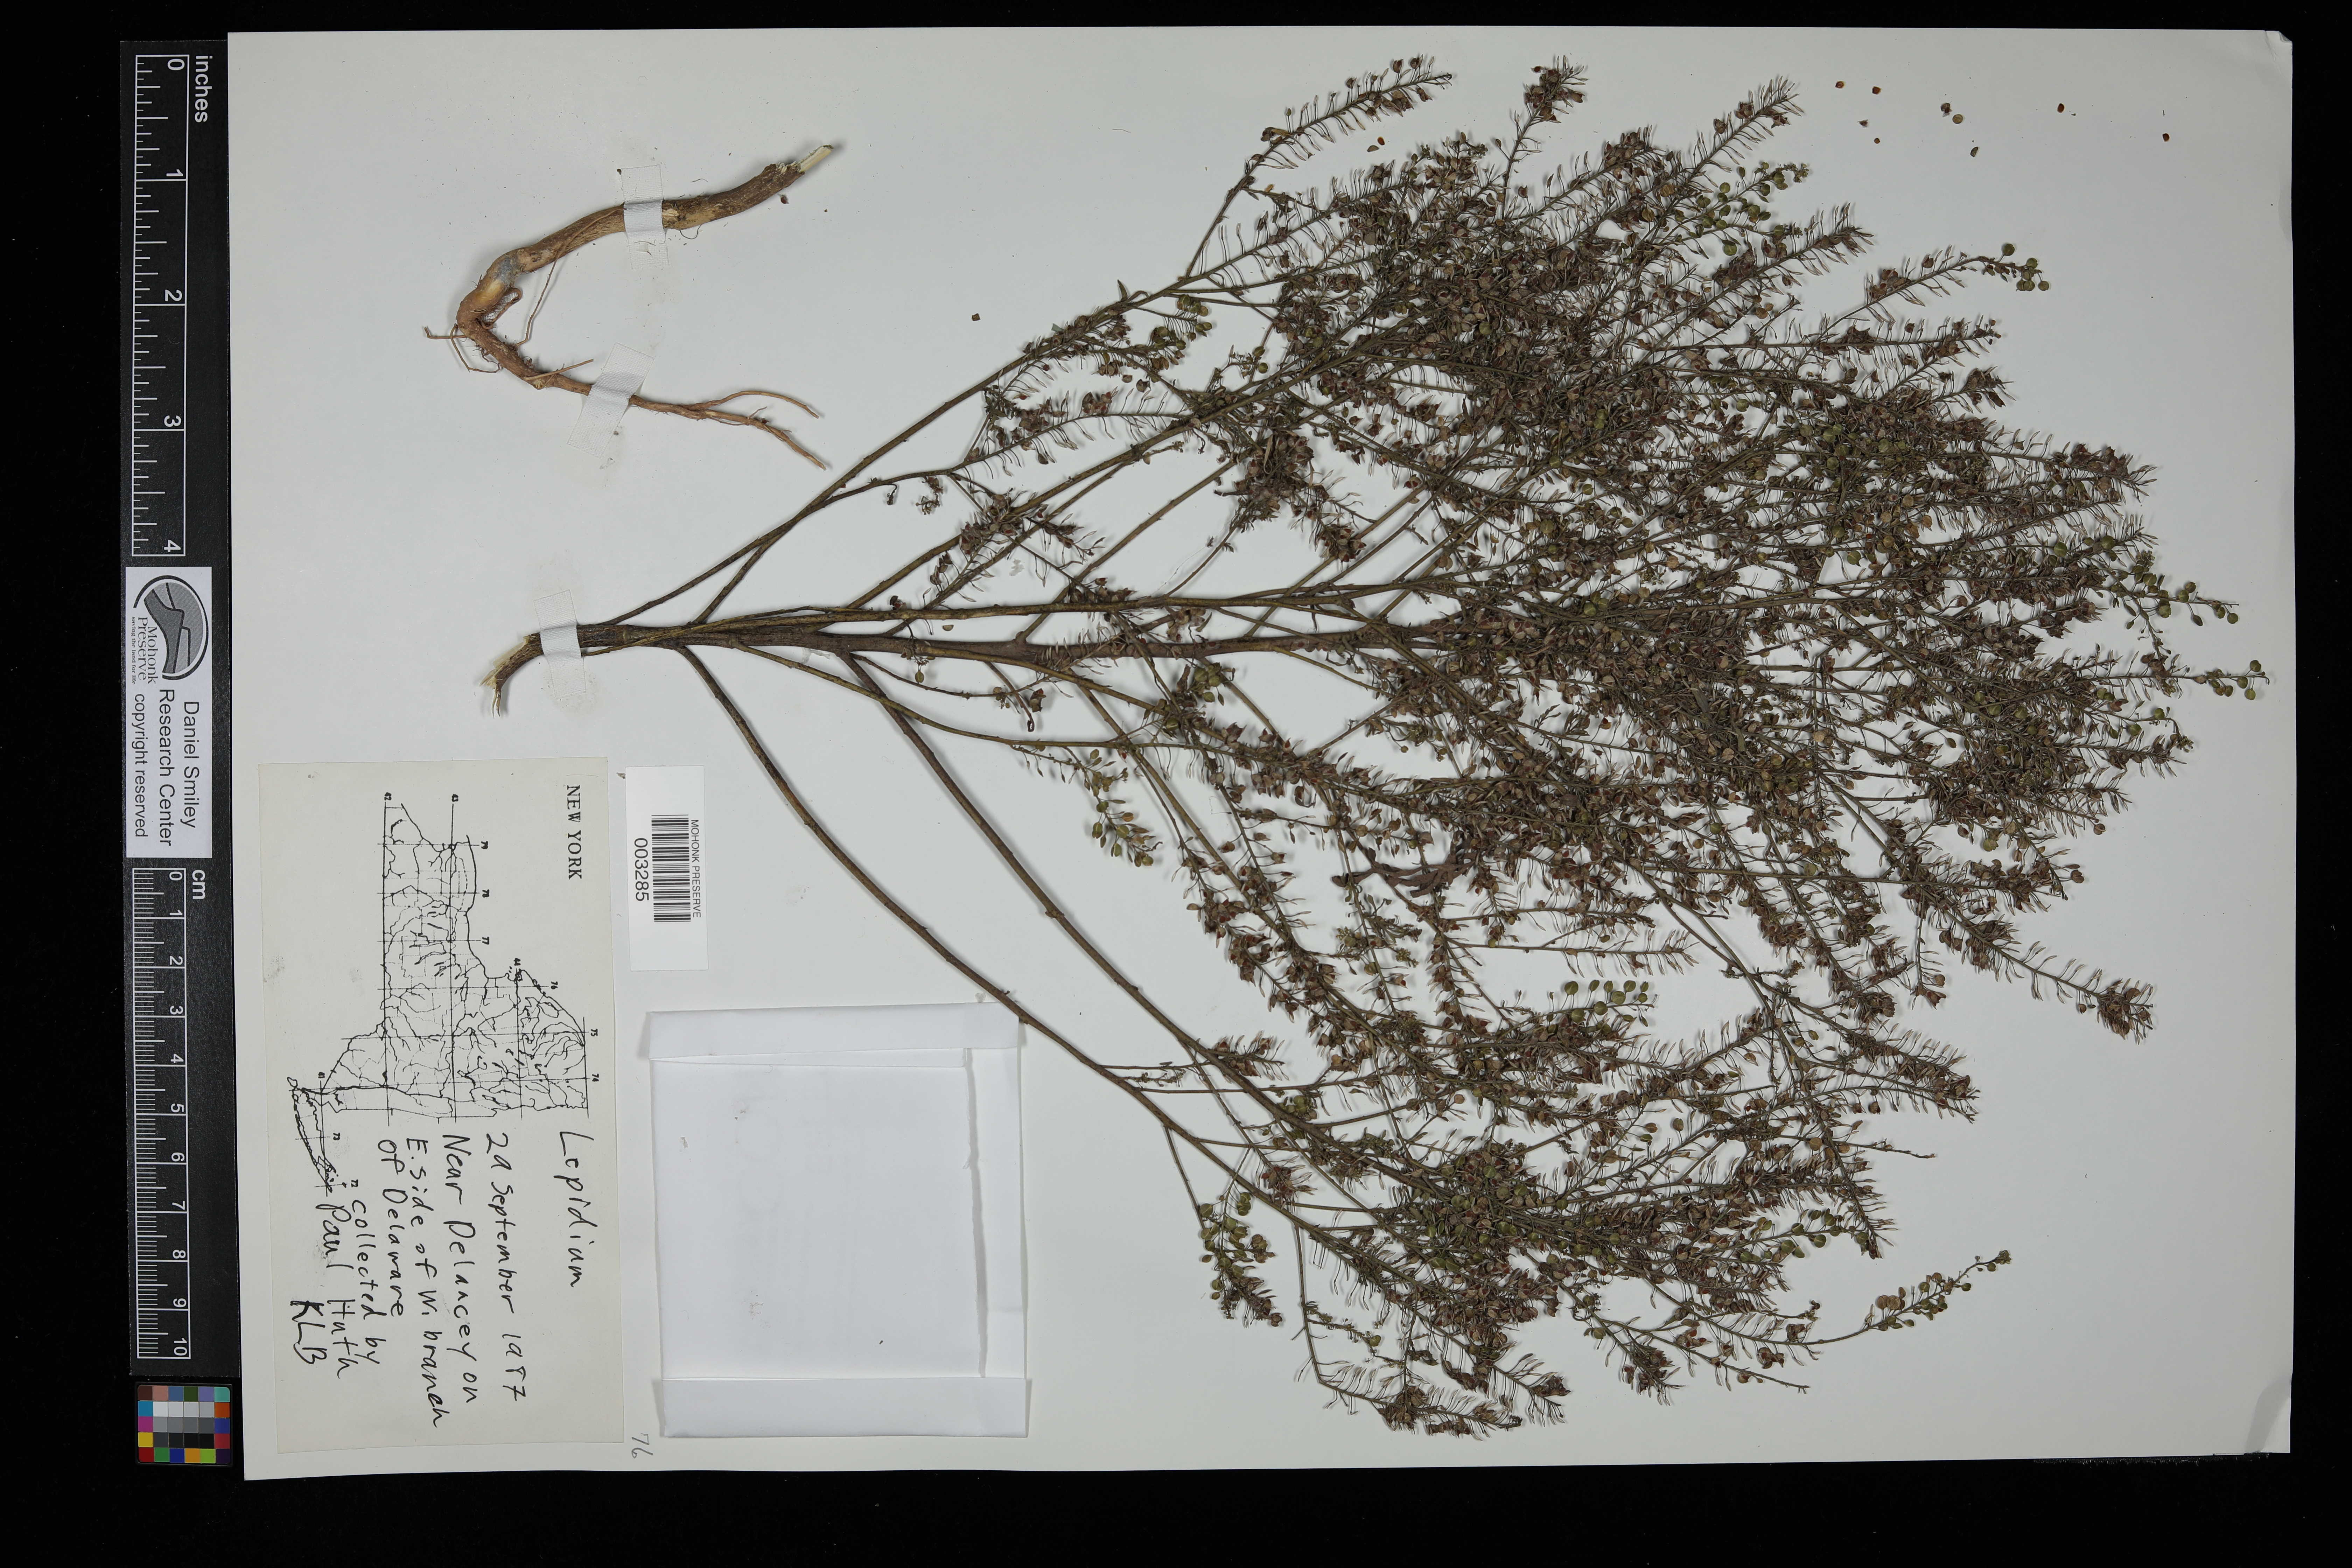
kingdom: Plantae
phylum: Tracheophyta
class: Magnoliopsida
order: Brassicales
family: Brassicaceae
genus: Lepidium
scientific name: Lepidium
